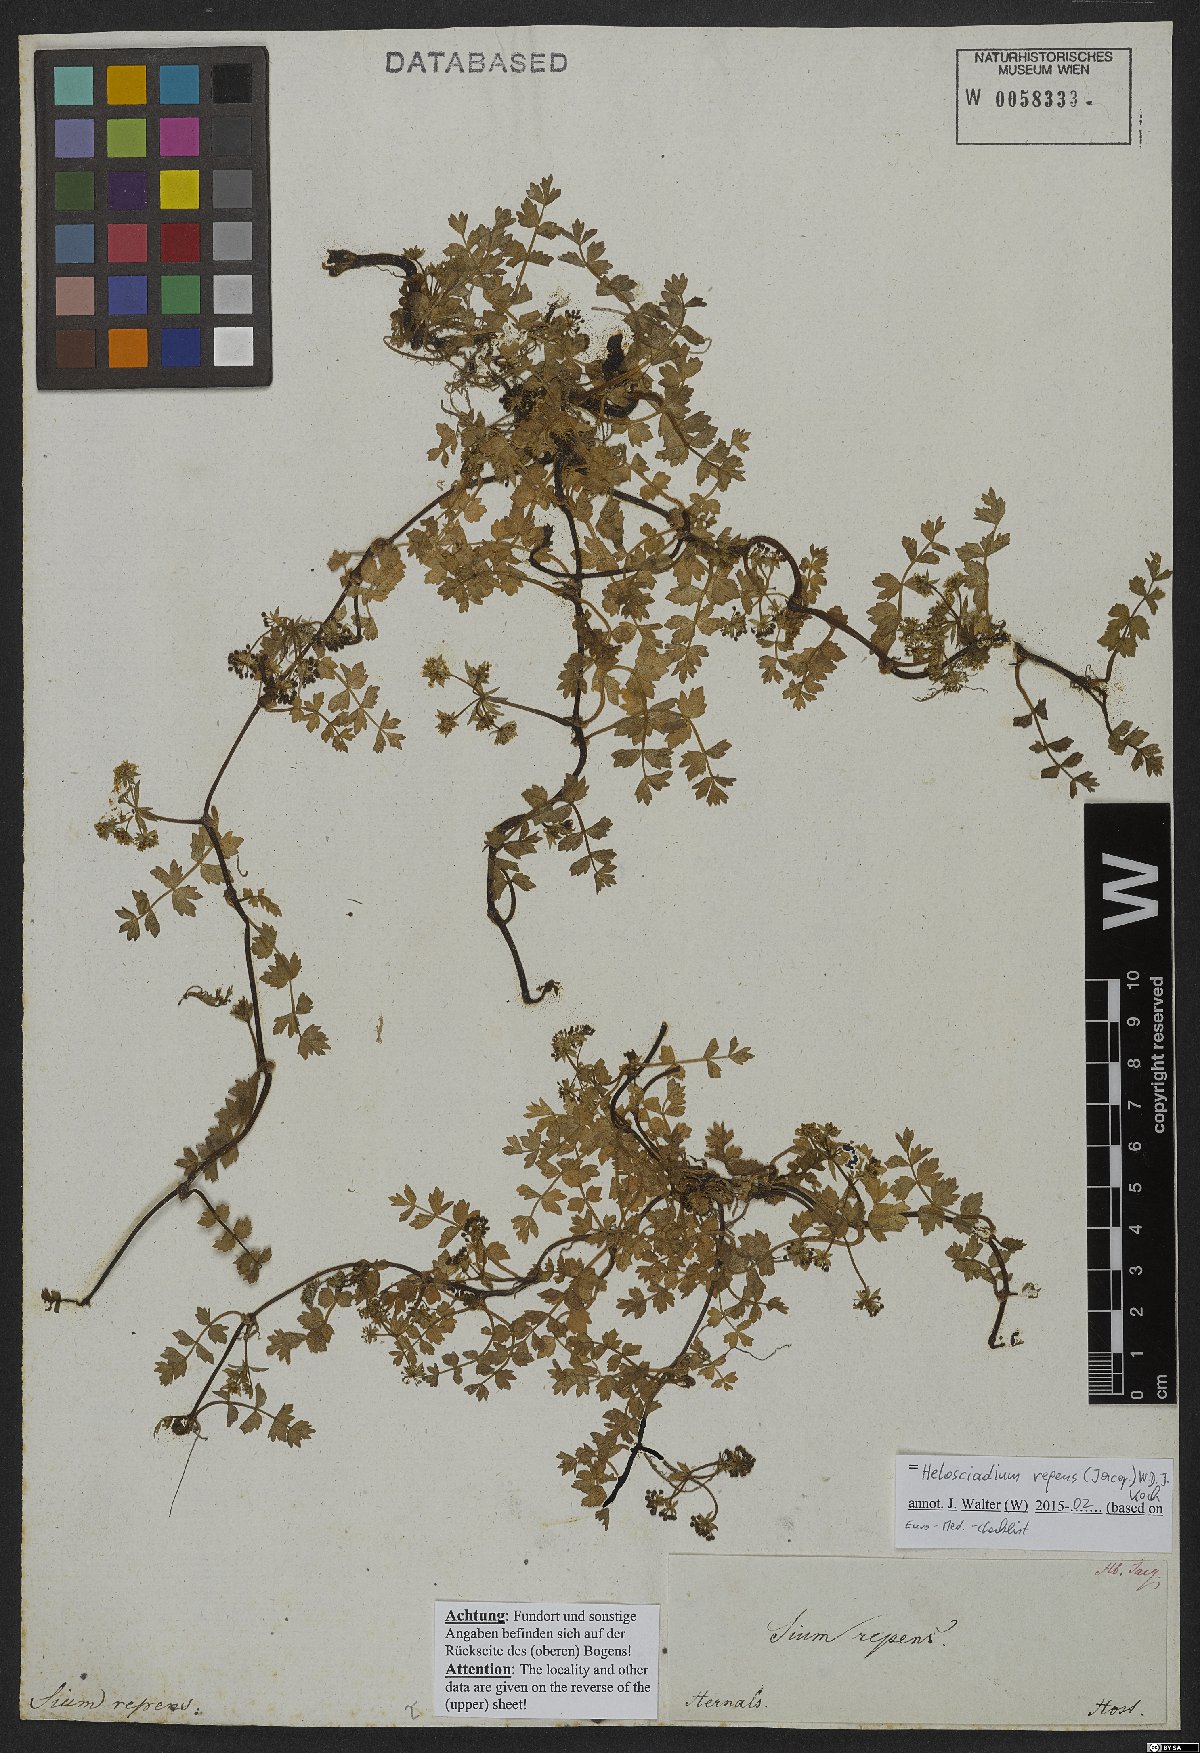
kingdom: Plantae
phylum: Tracheophyta
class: Magnoliopsida
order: Apiales
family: Apiaceae
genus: Helosciadium
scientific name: Helosciadium repens
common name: Creeping marshwort
